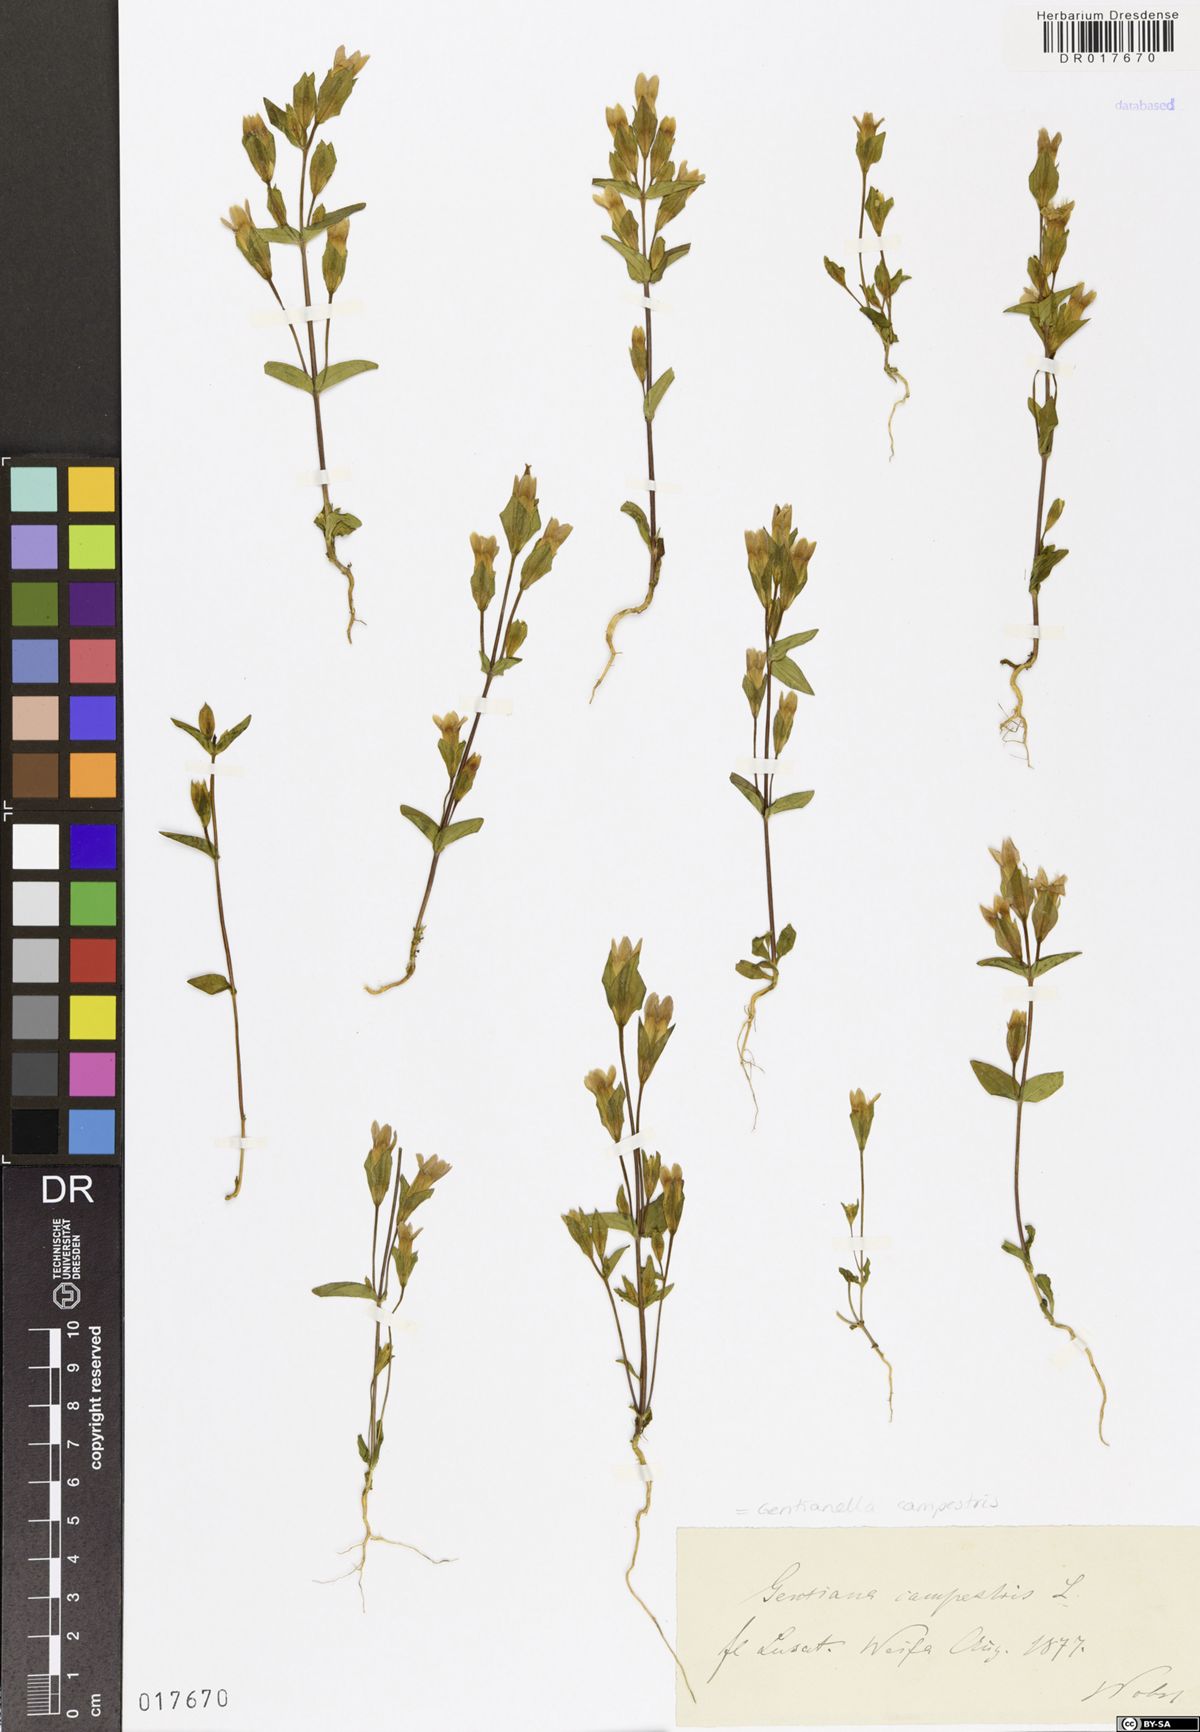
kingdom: Plantae
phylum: Tracheophyta
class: Magnoliopsida
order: Gentianales
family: Gentianaceae
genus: Gentianella
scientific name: Gentianella campestris
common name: Field gentian
